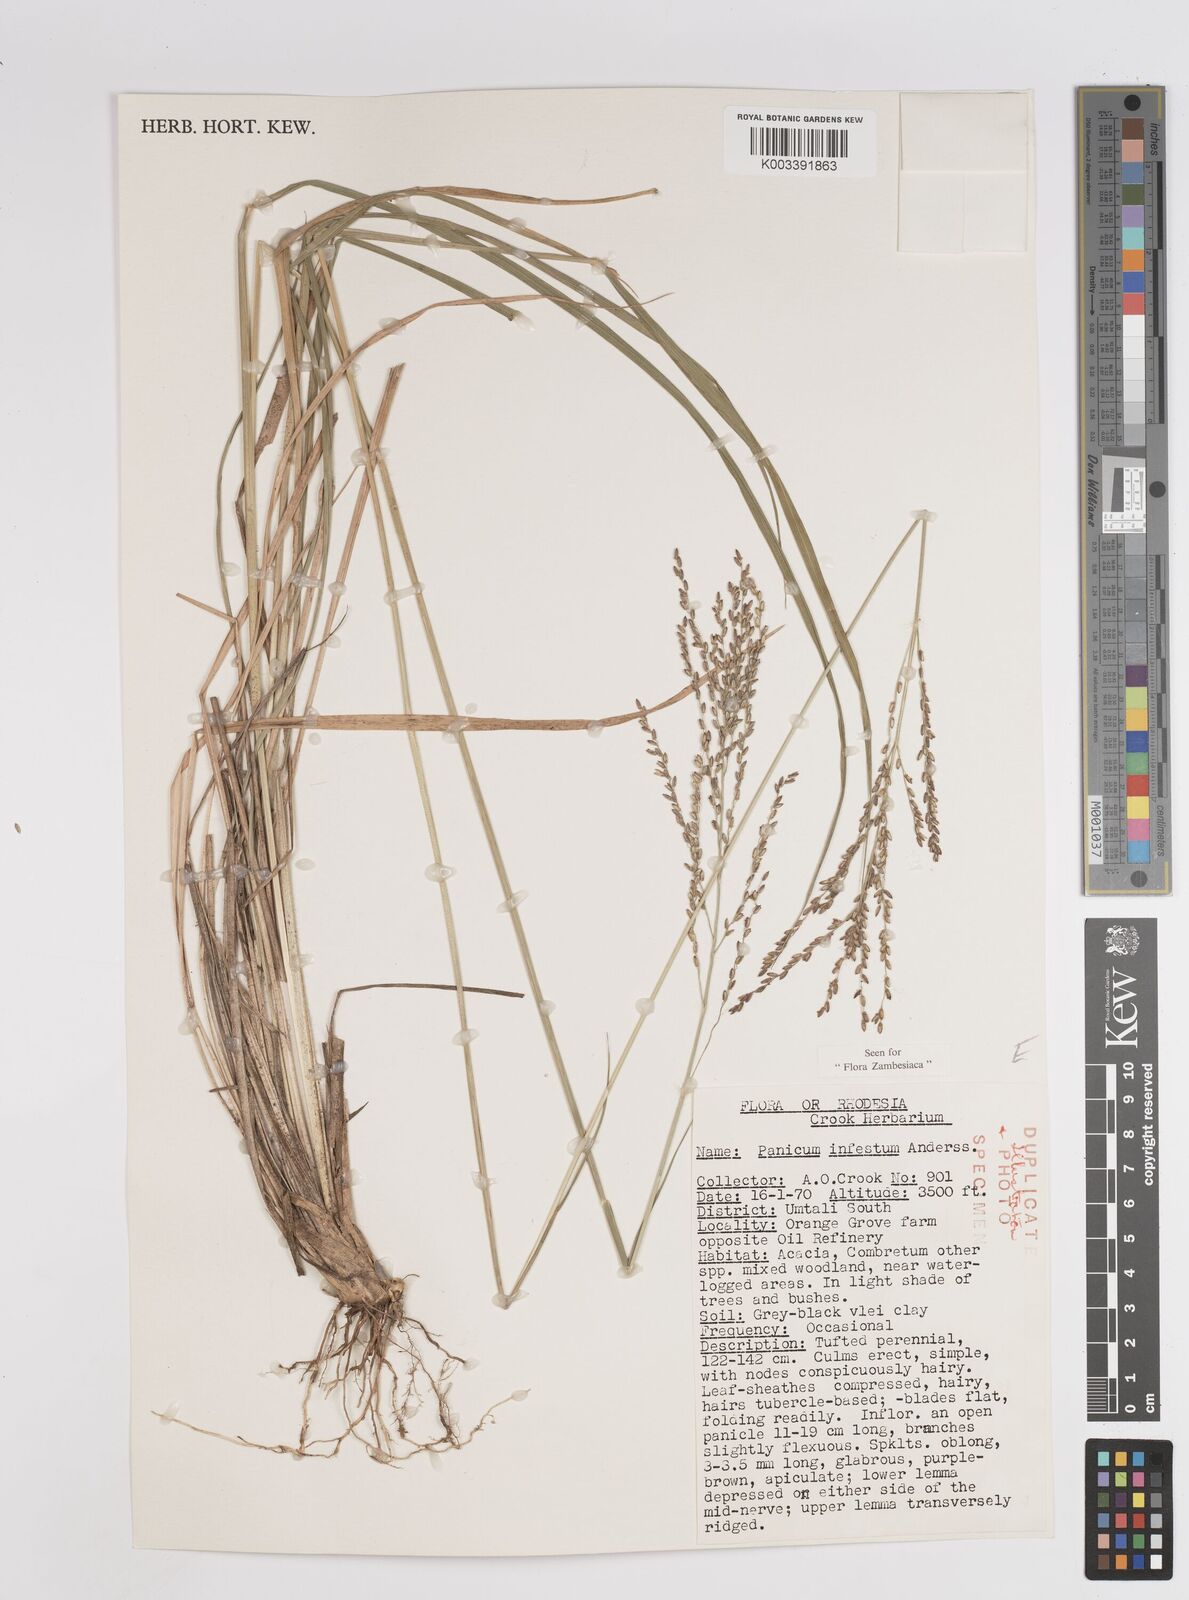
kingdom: Plantae
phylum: Tracheophyta
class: Liliopsida
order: Poales
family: Poaceae
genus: Megathyrsus
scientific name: Megathyrsus infestus
